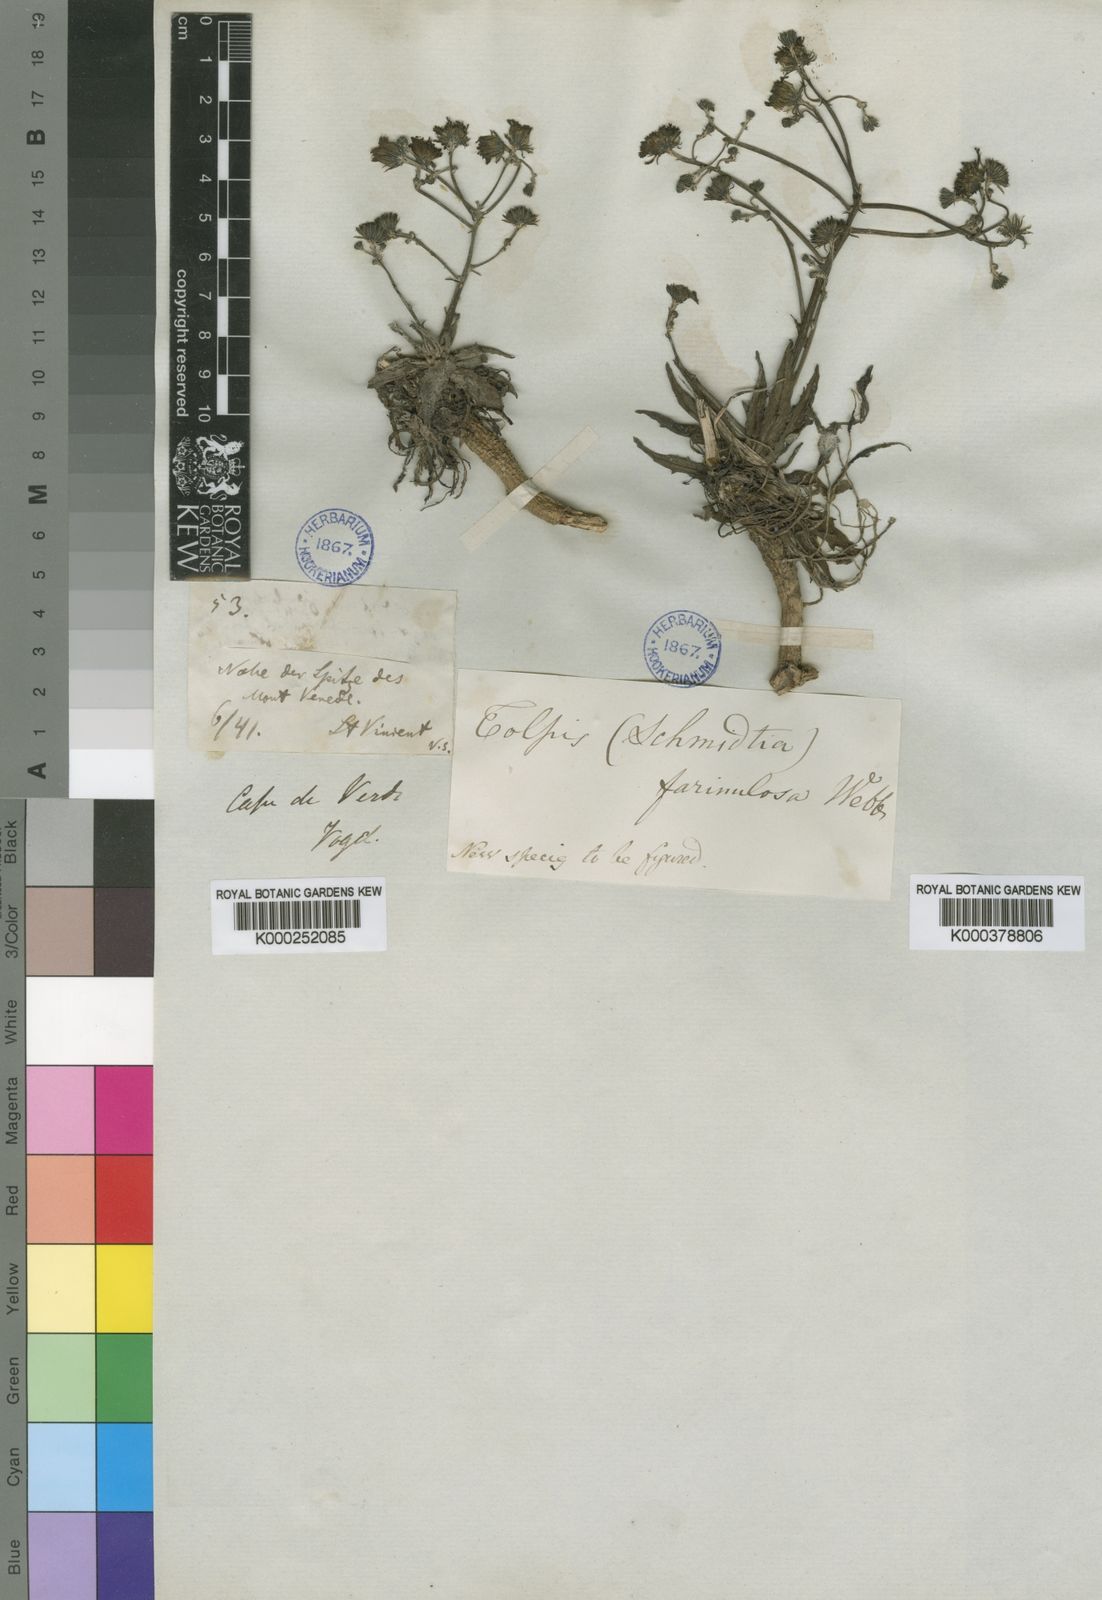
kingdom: Plantae
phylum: Tracheophyta
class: Magnoliopsida
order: Asterales
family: Asteraceae
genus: Tolpis
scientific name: Tolpis
